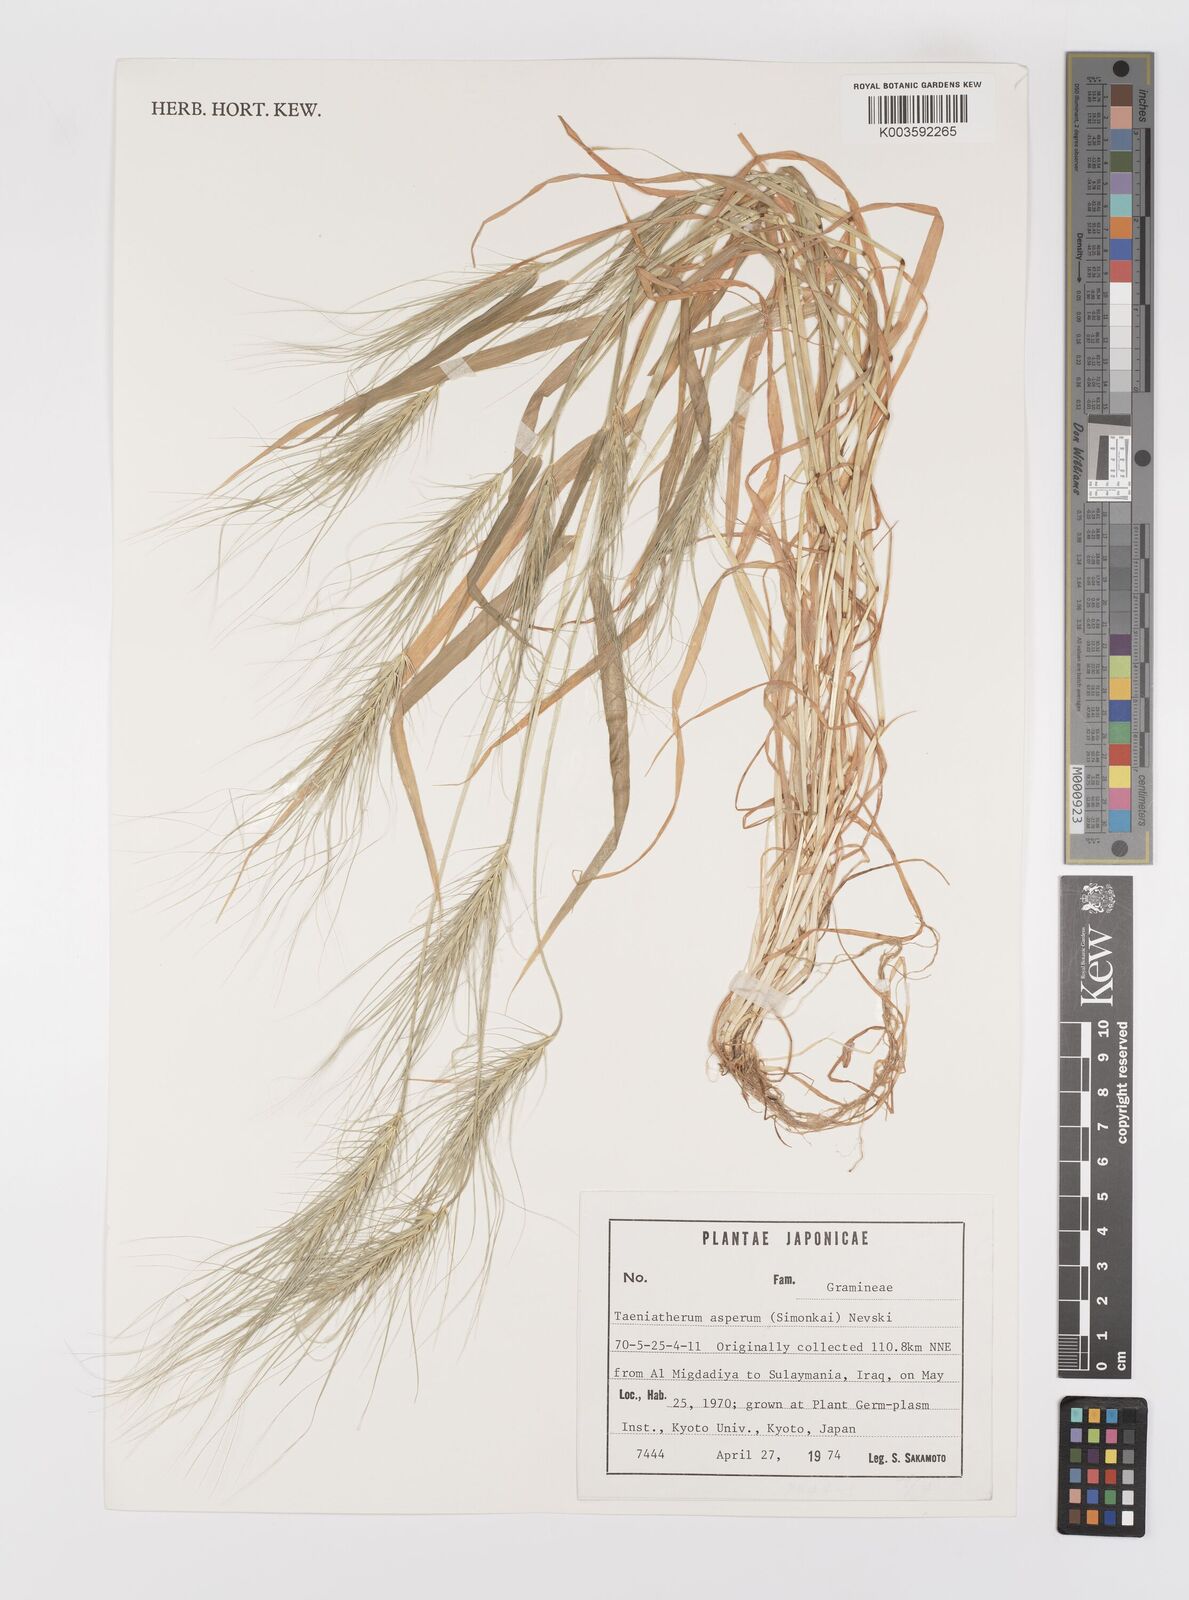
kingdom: Plantae
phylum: Tracheophyta
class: Liliopsida
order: Poales
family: Poaceae
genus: Taeniatherum
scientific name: Taeniatherum caput-medusae
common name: Medusahead
